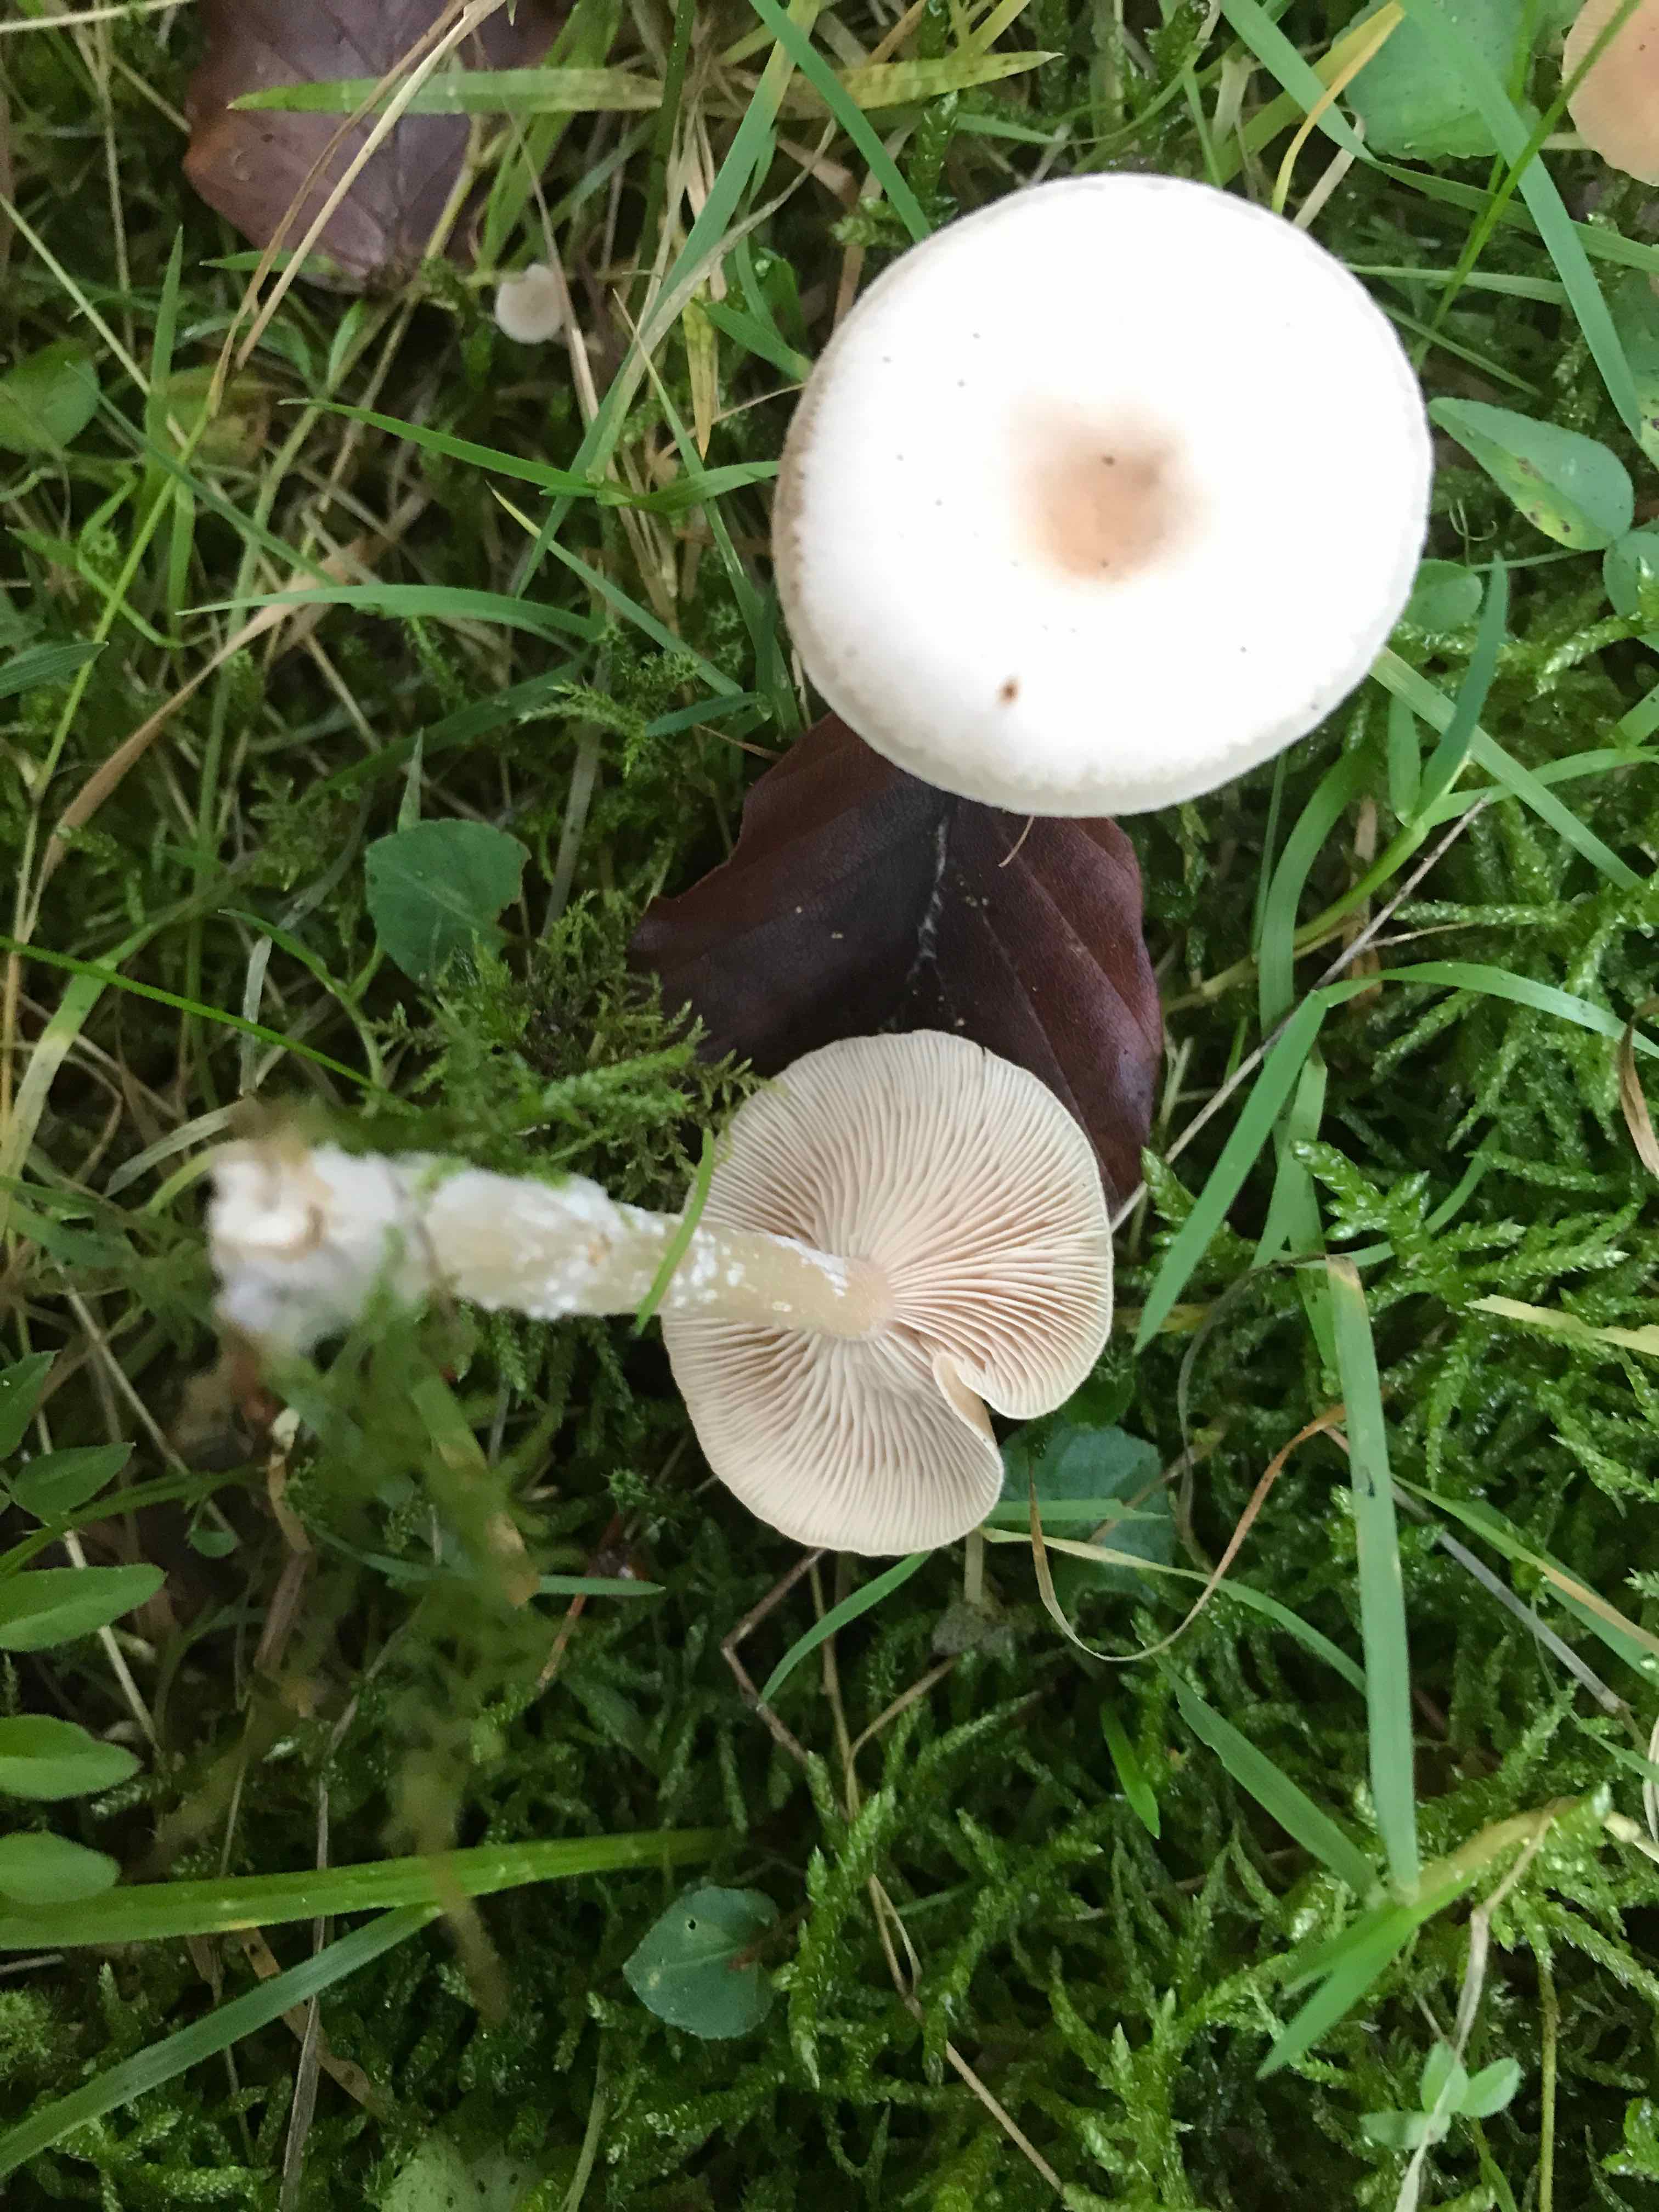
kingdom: Fungi
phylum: Basidiomycota
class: Agaricomycetes
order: Agaricales
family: Tricholomataceae
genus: Clitocybe
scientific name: Clitocybe fragrans
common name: vellugtende tragthat
